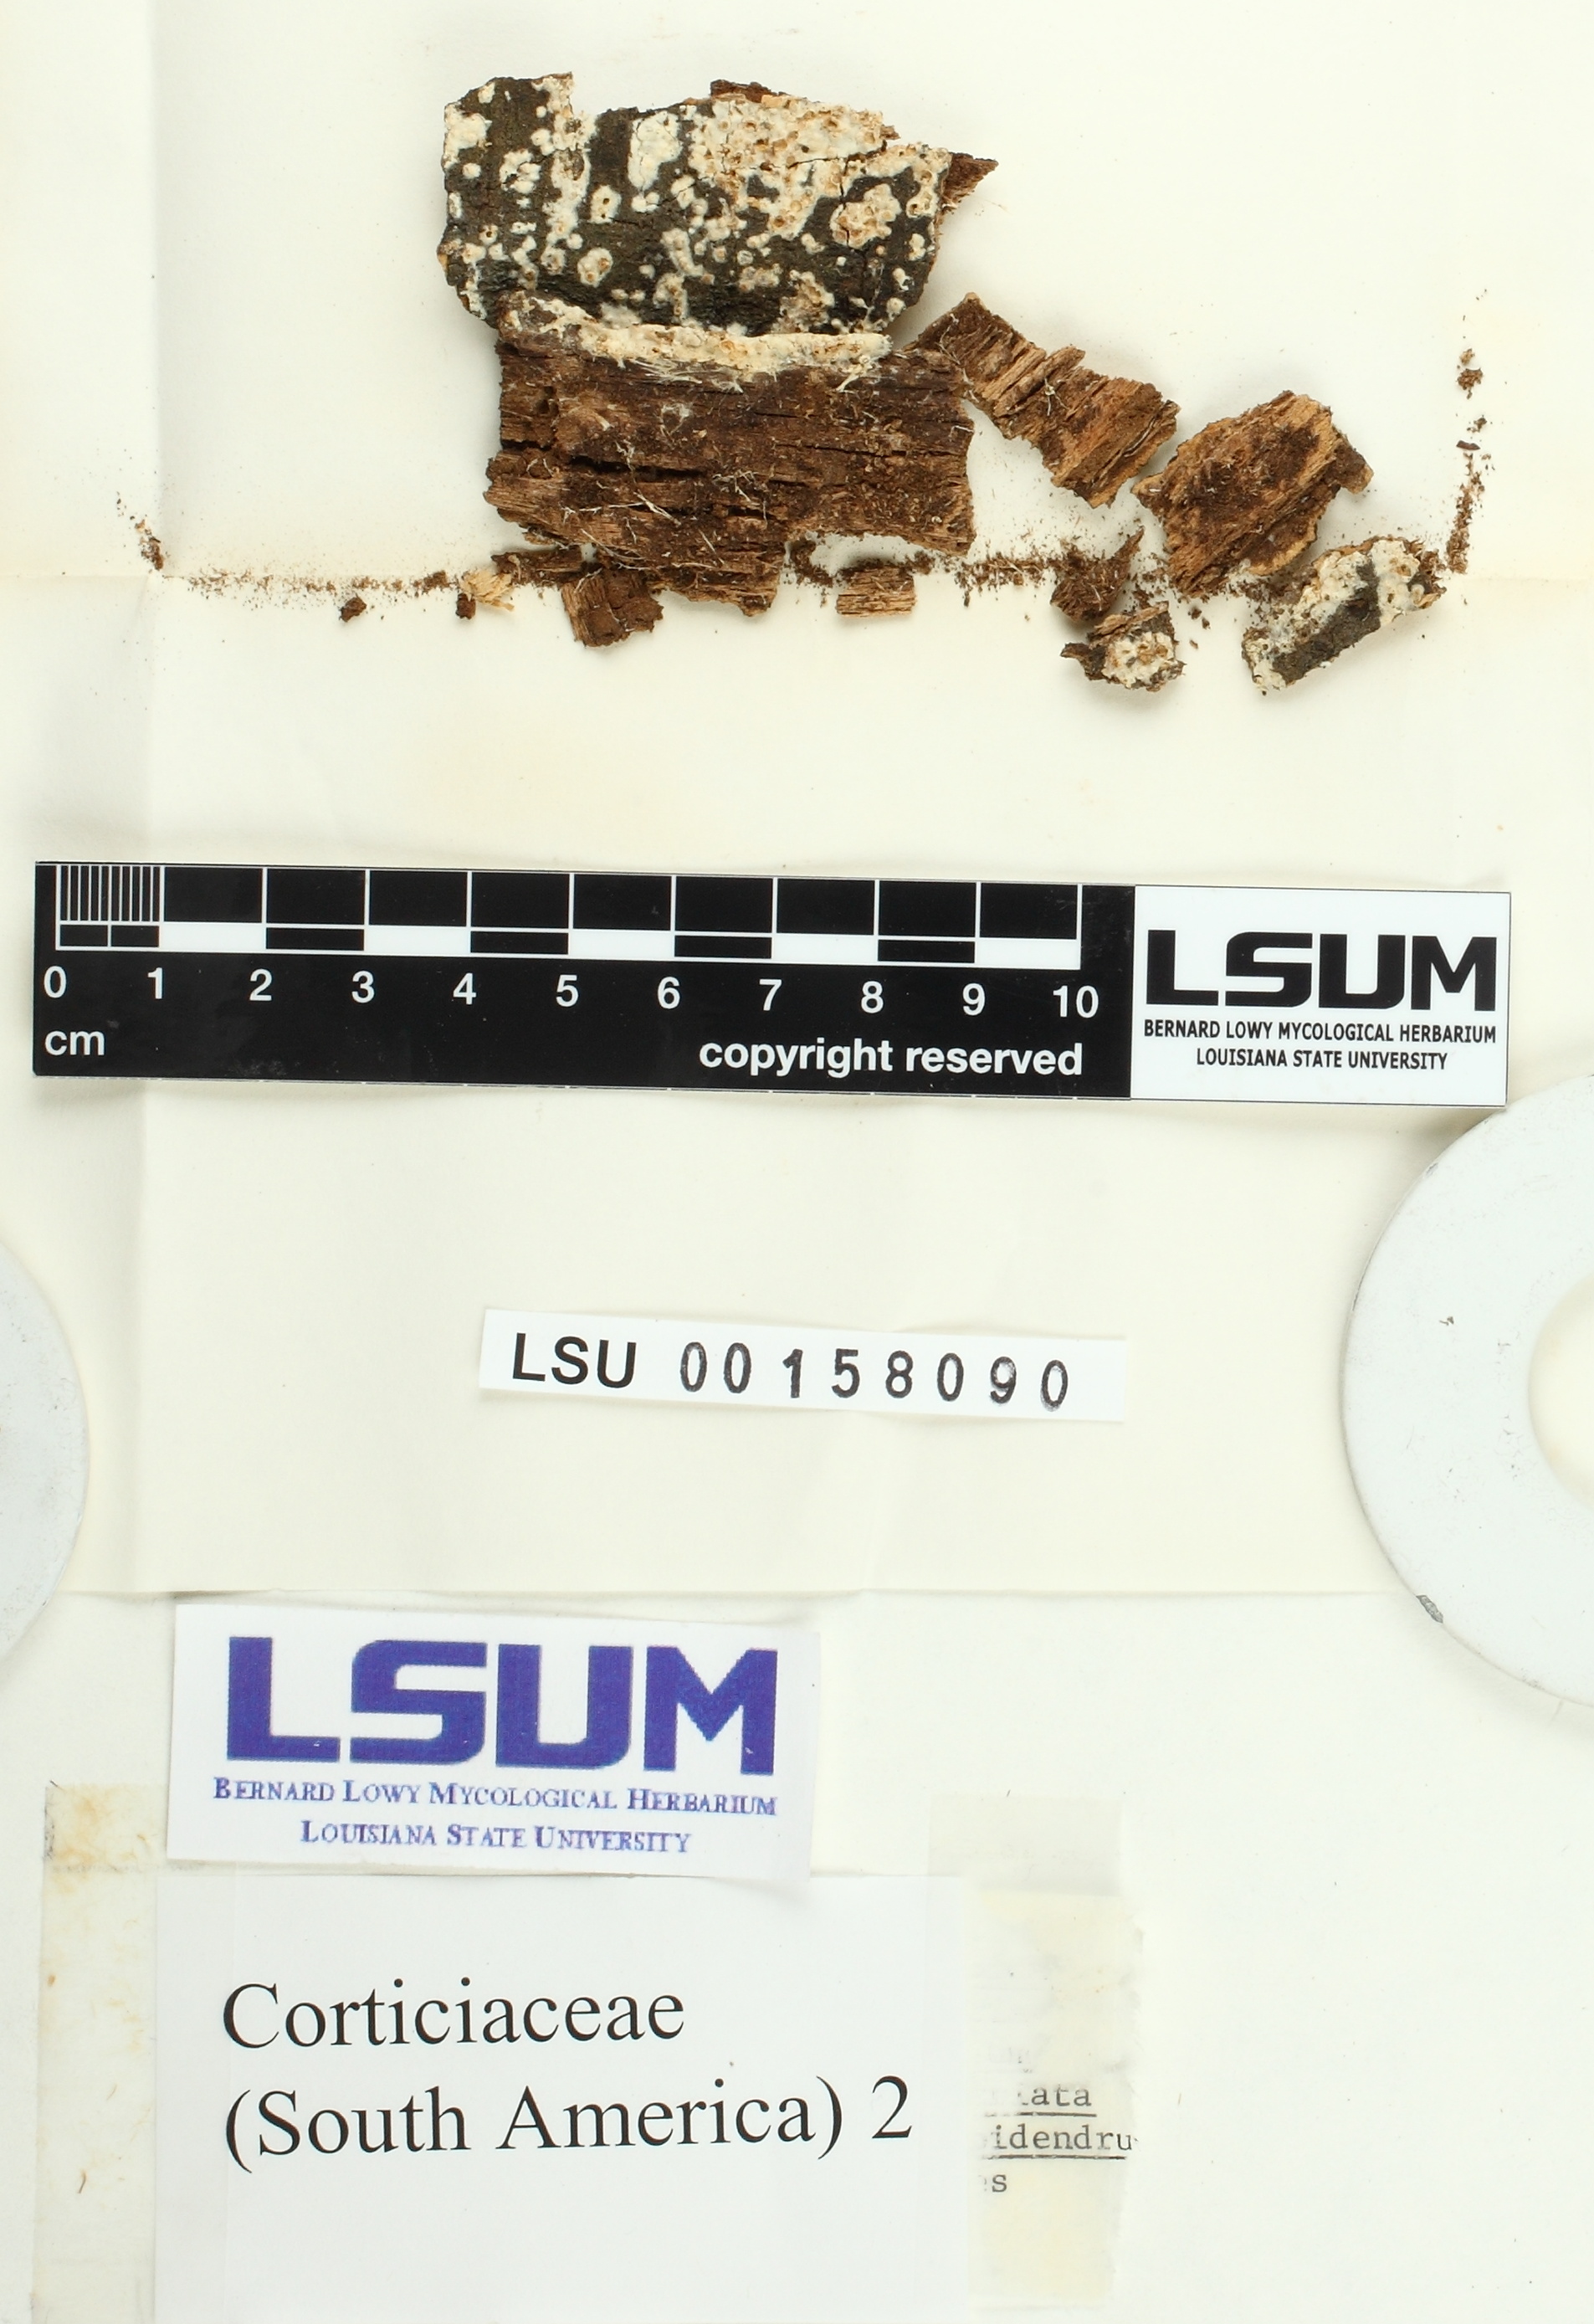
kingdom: Fungi
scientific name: Fungi
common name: Fungi
